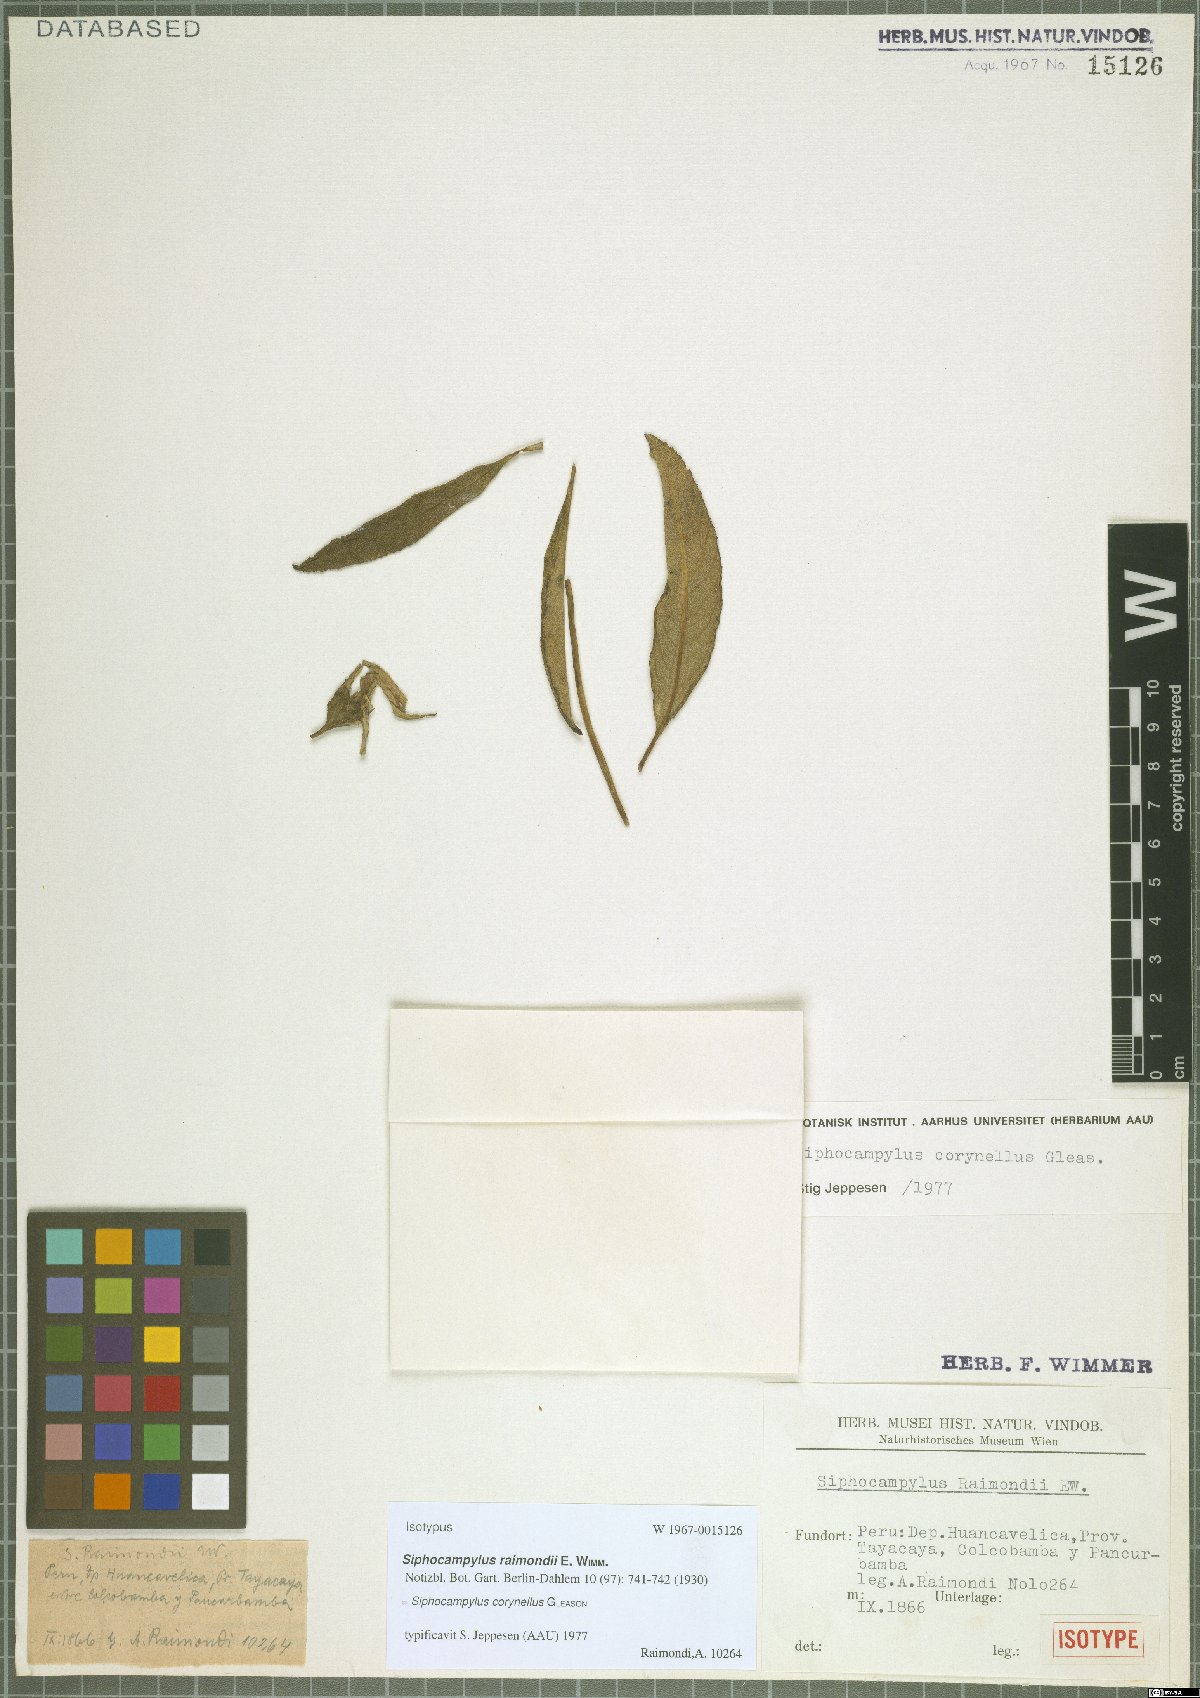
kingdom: Plantae
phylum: Tracheophyta
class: Magnoliopsida
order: Asterales
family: Campanulaceae
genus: Siphocampylus
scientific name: Siphocampylus corynellus
